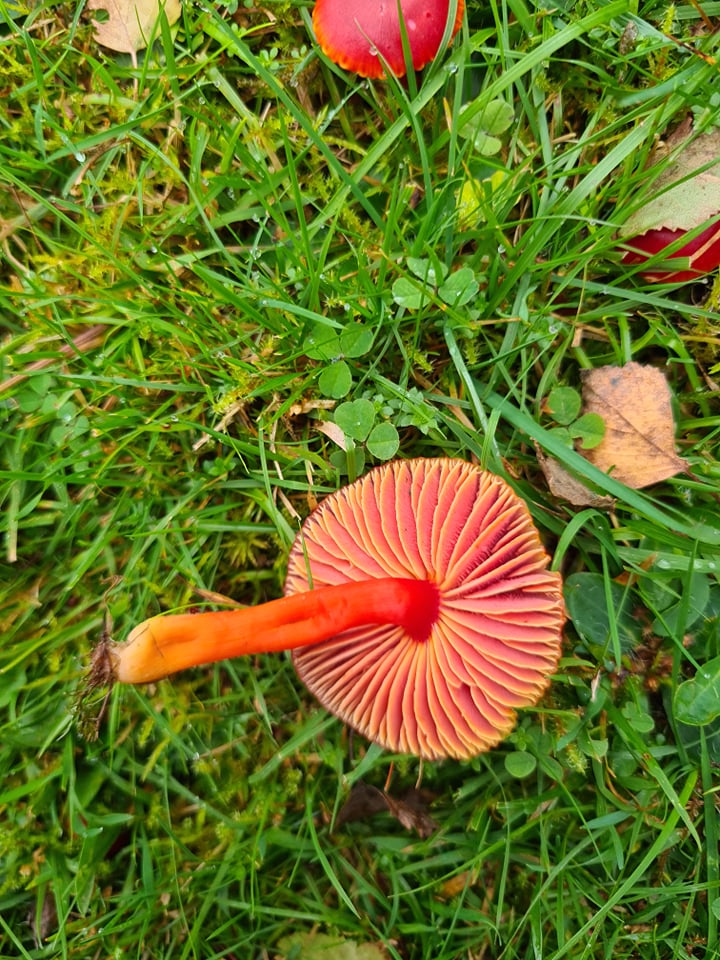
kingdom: Fungi
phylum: Basidiomycota
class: Agaricomycetes
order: Agaricales
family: Hygrophoraceae
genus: Hygrocybe
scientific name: Hygrocybe coccinea
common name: cinnober-vokshat
